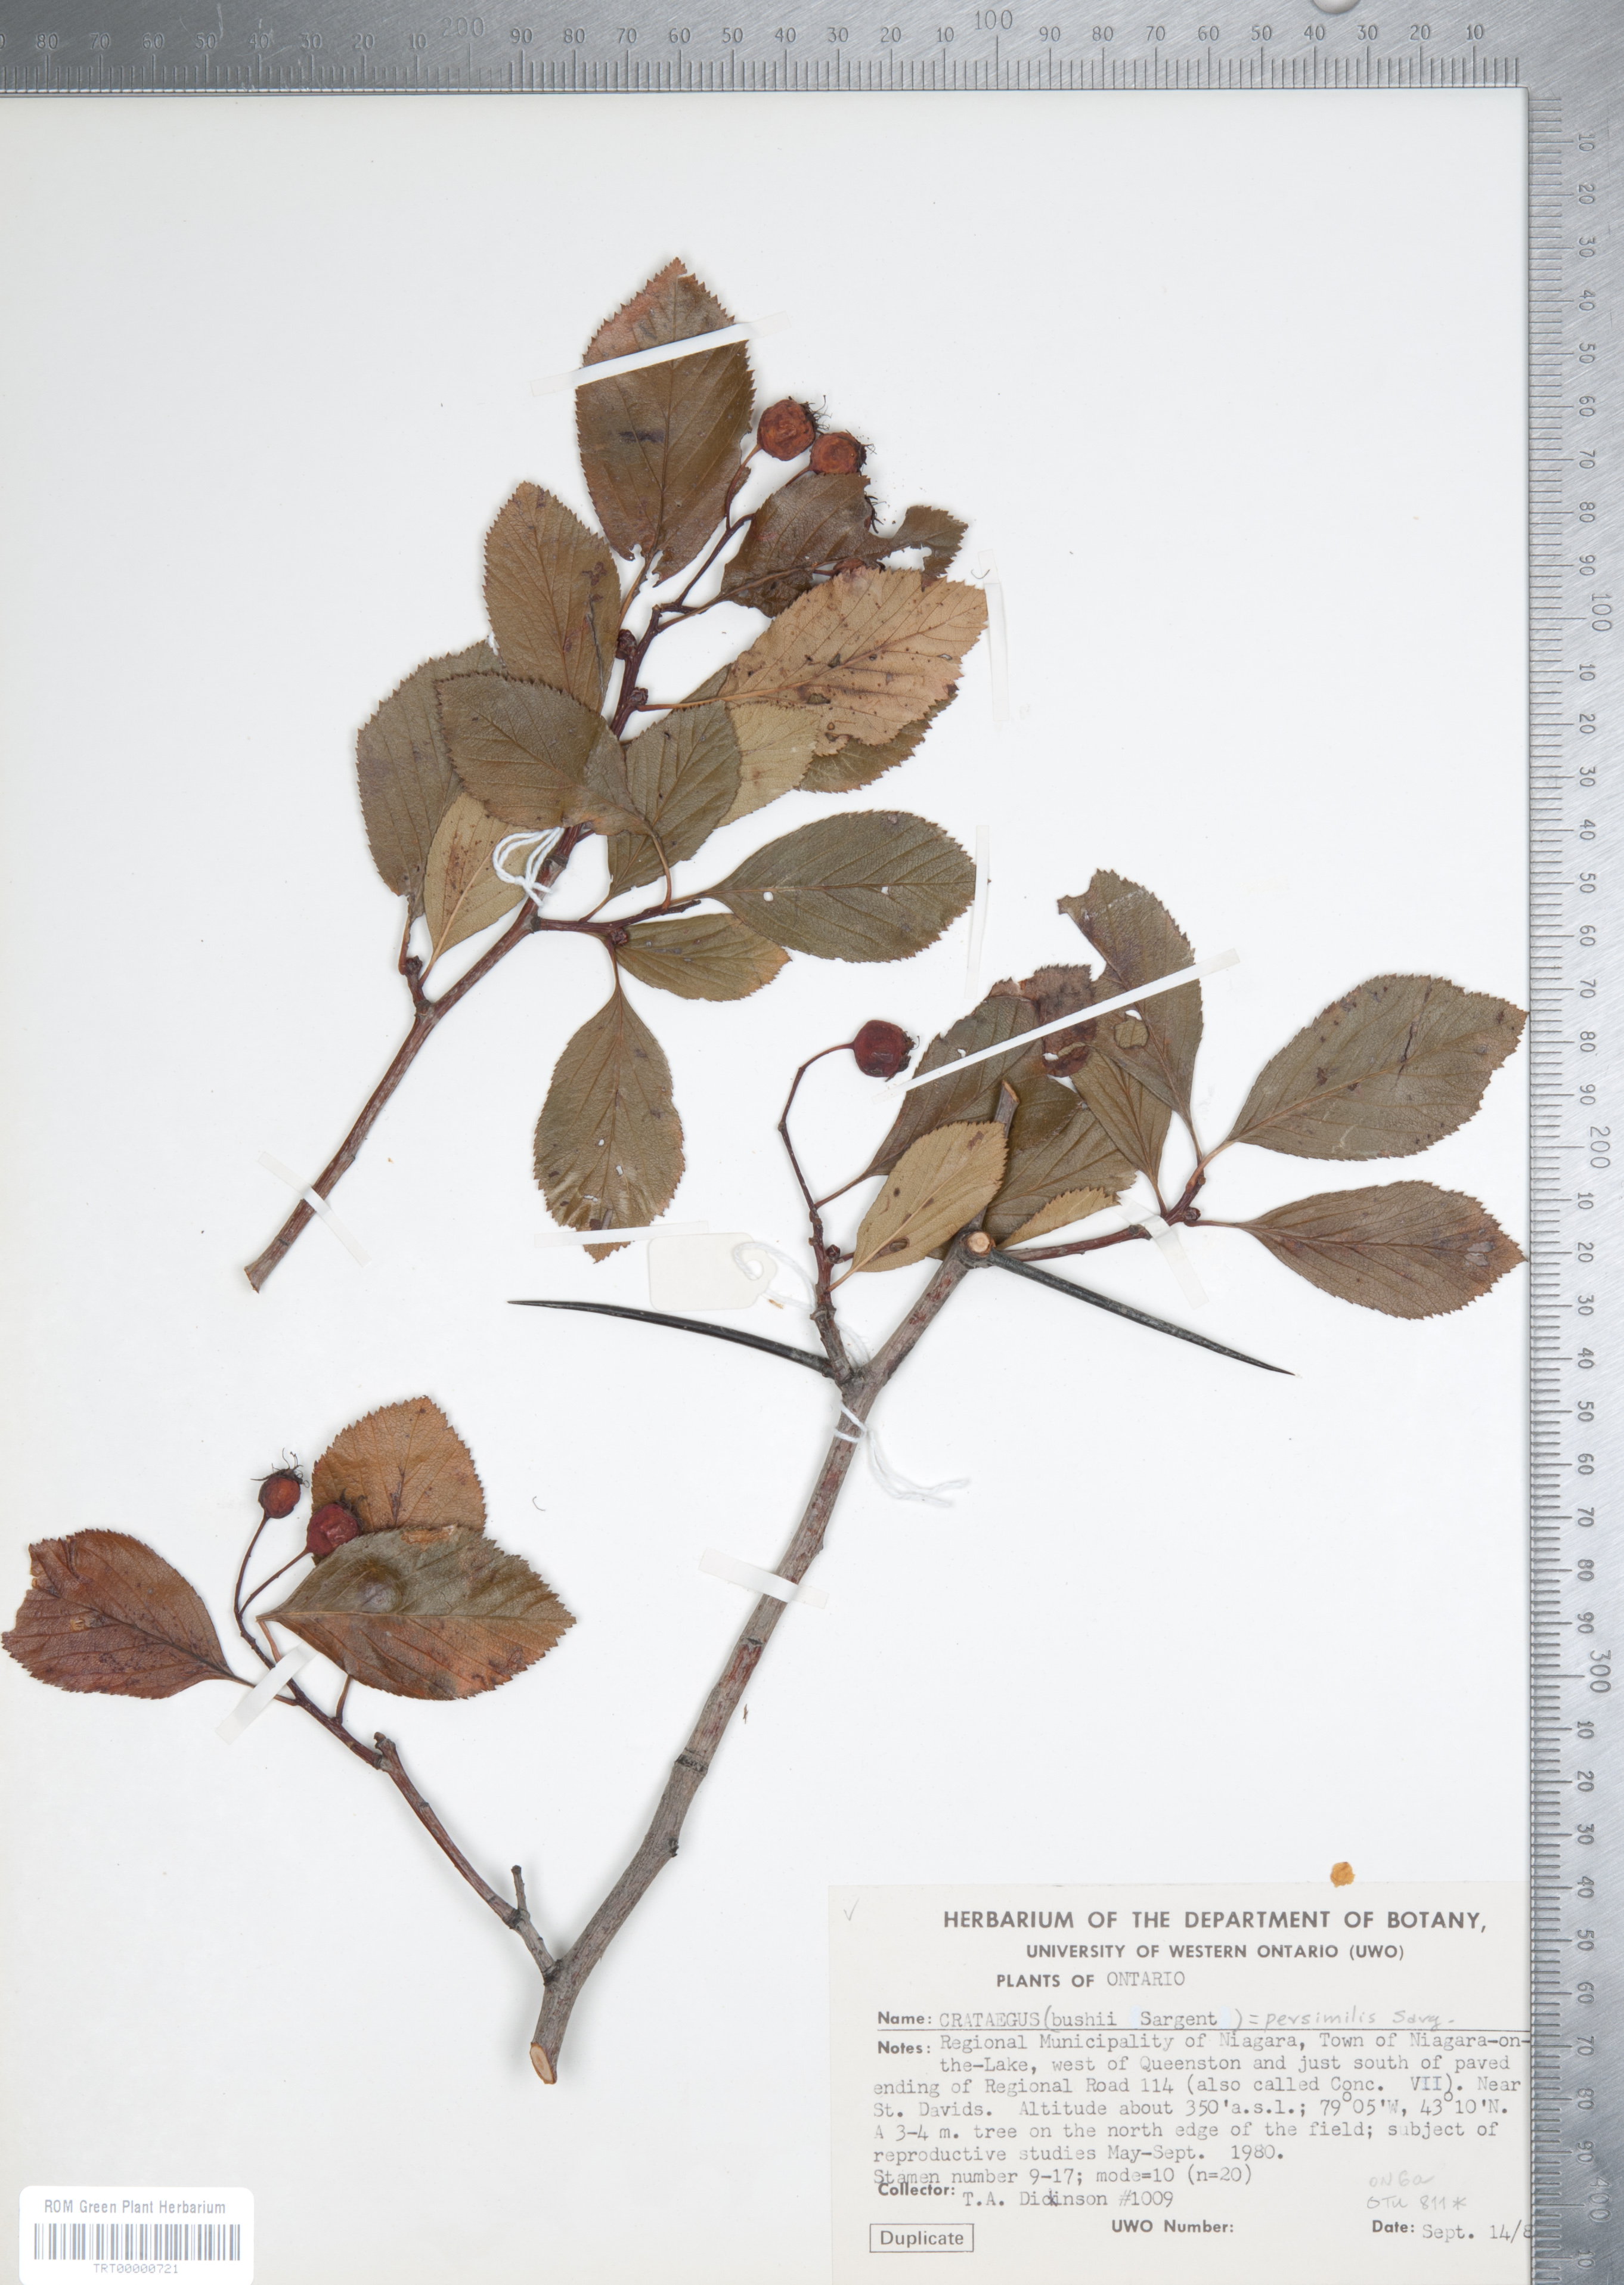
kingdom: Plantae
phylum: Tracheophyta
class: Magnoliopsida
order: Rosales
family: Rosaceae
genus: Crataegus
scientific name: Crataegus persimilis
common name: Broad-leaved cockspurthorn
